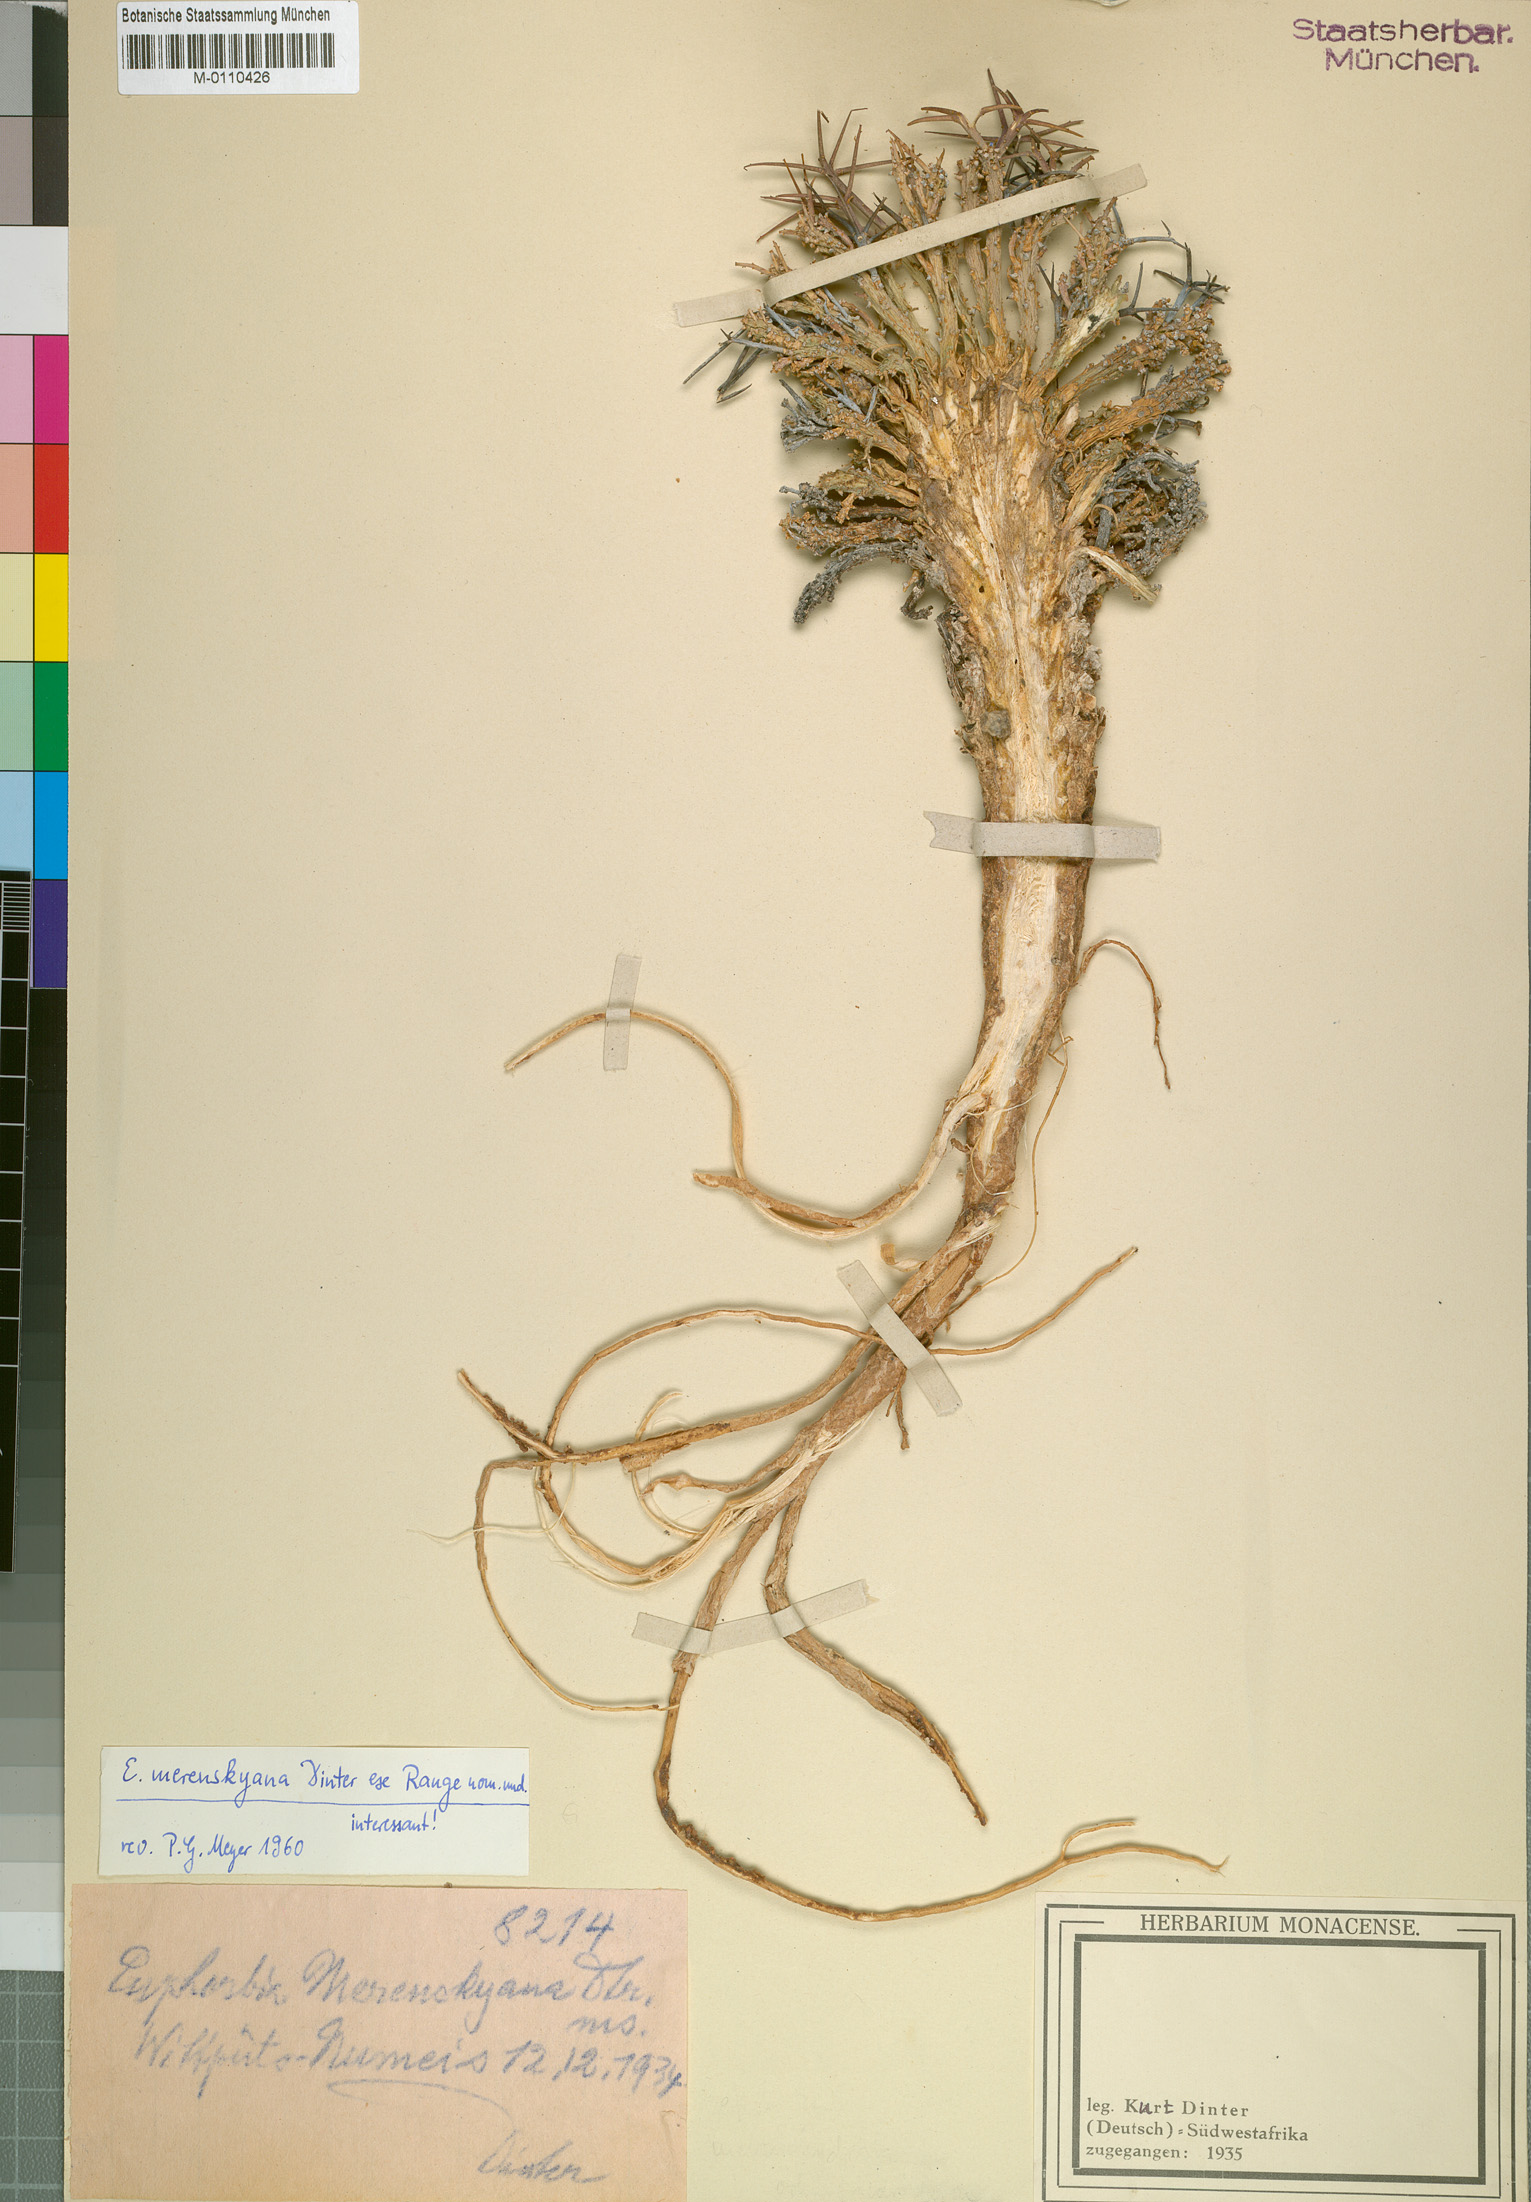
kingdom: Plantae
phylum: Tracheophyta
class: Magnoliopsida
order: Malpighiales
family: Euphorbiaceae
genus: Euphorbia
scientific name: Euphorbia namibensis
